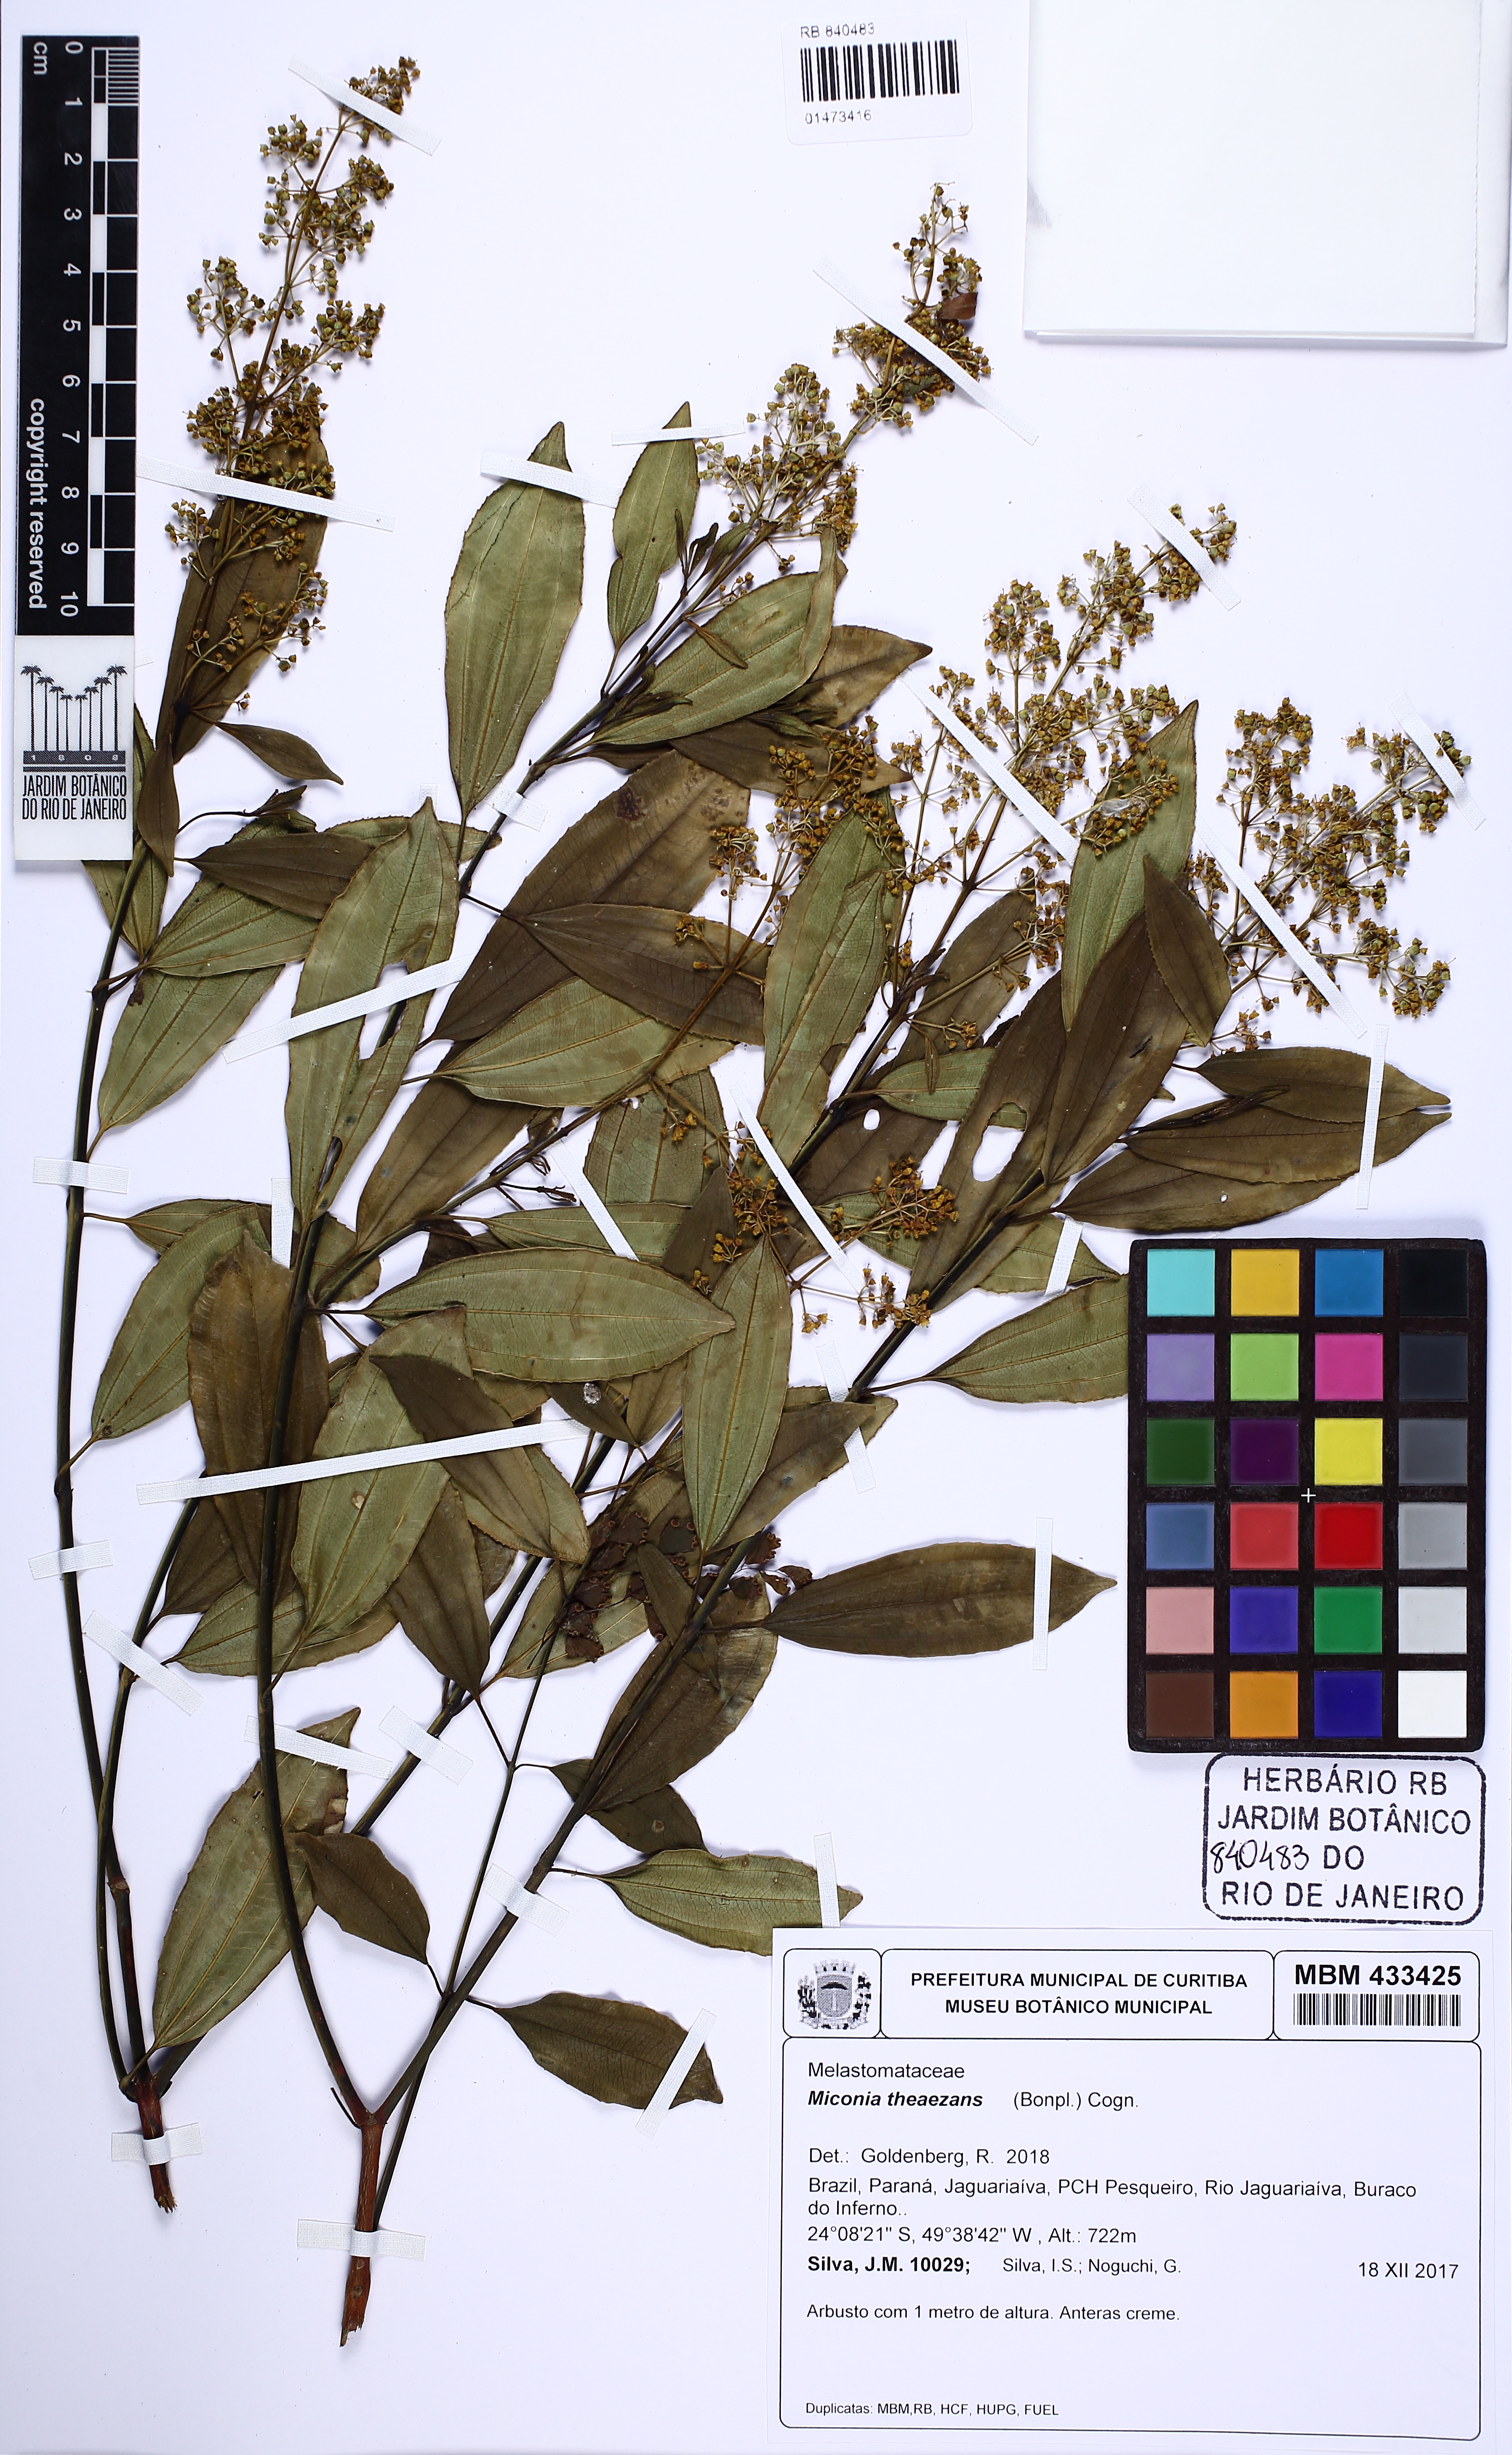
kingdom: Plantae
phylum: Tracheophyta
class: Magnoliopsida
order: Myrtales
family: Melastomataceae
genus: Miconia
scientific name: Miconia theizans
